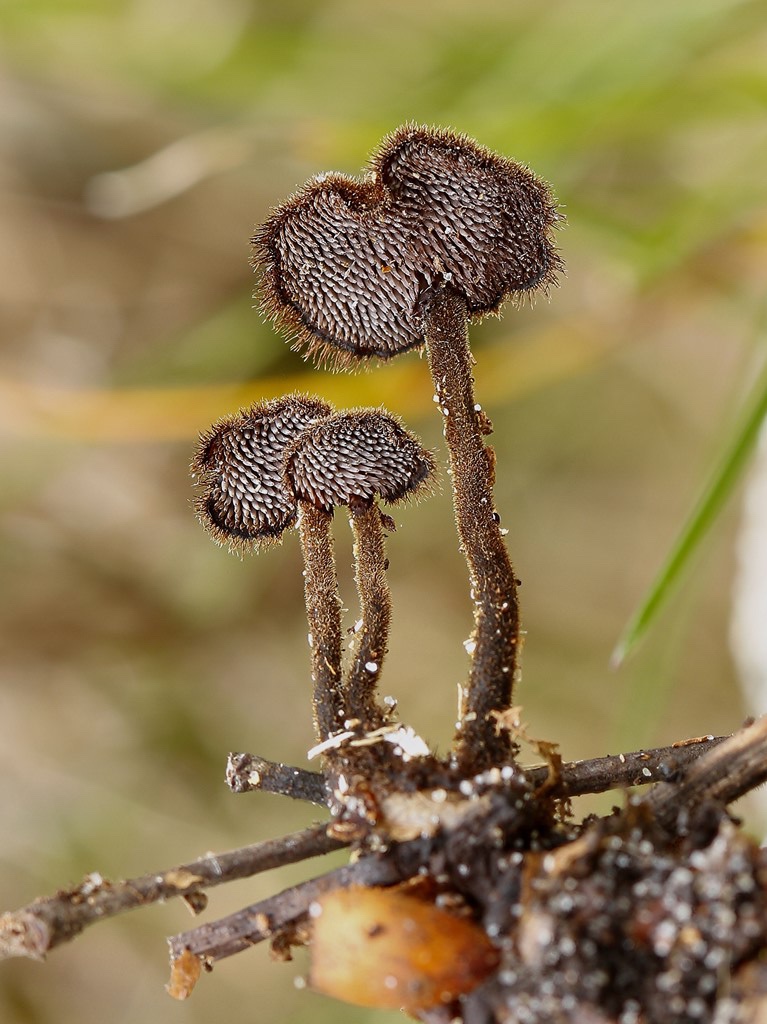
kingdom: Fungi
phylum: Basidiomycota
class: Agaricomycetes
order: Russulales
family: Auriscalpiaceae
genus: Auriscalpium
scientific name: Auriscalpium vulgare
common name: koglepigsvamp
